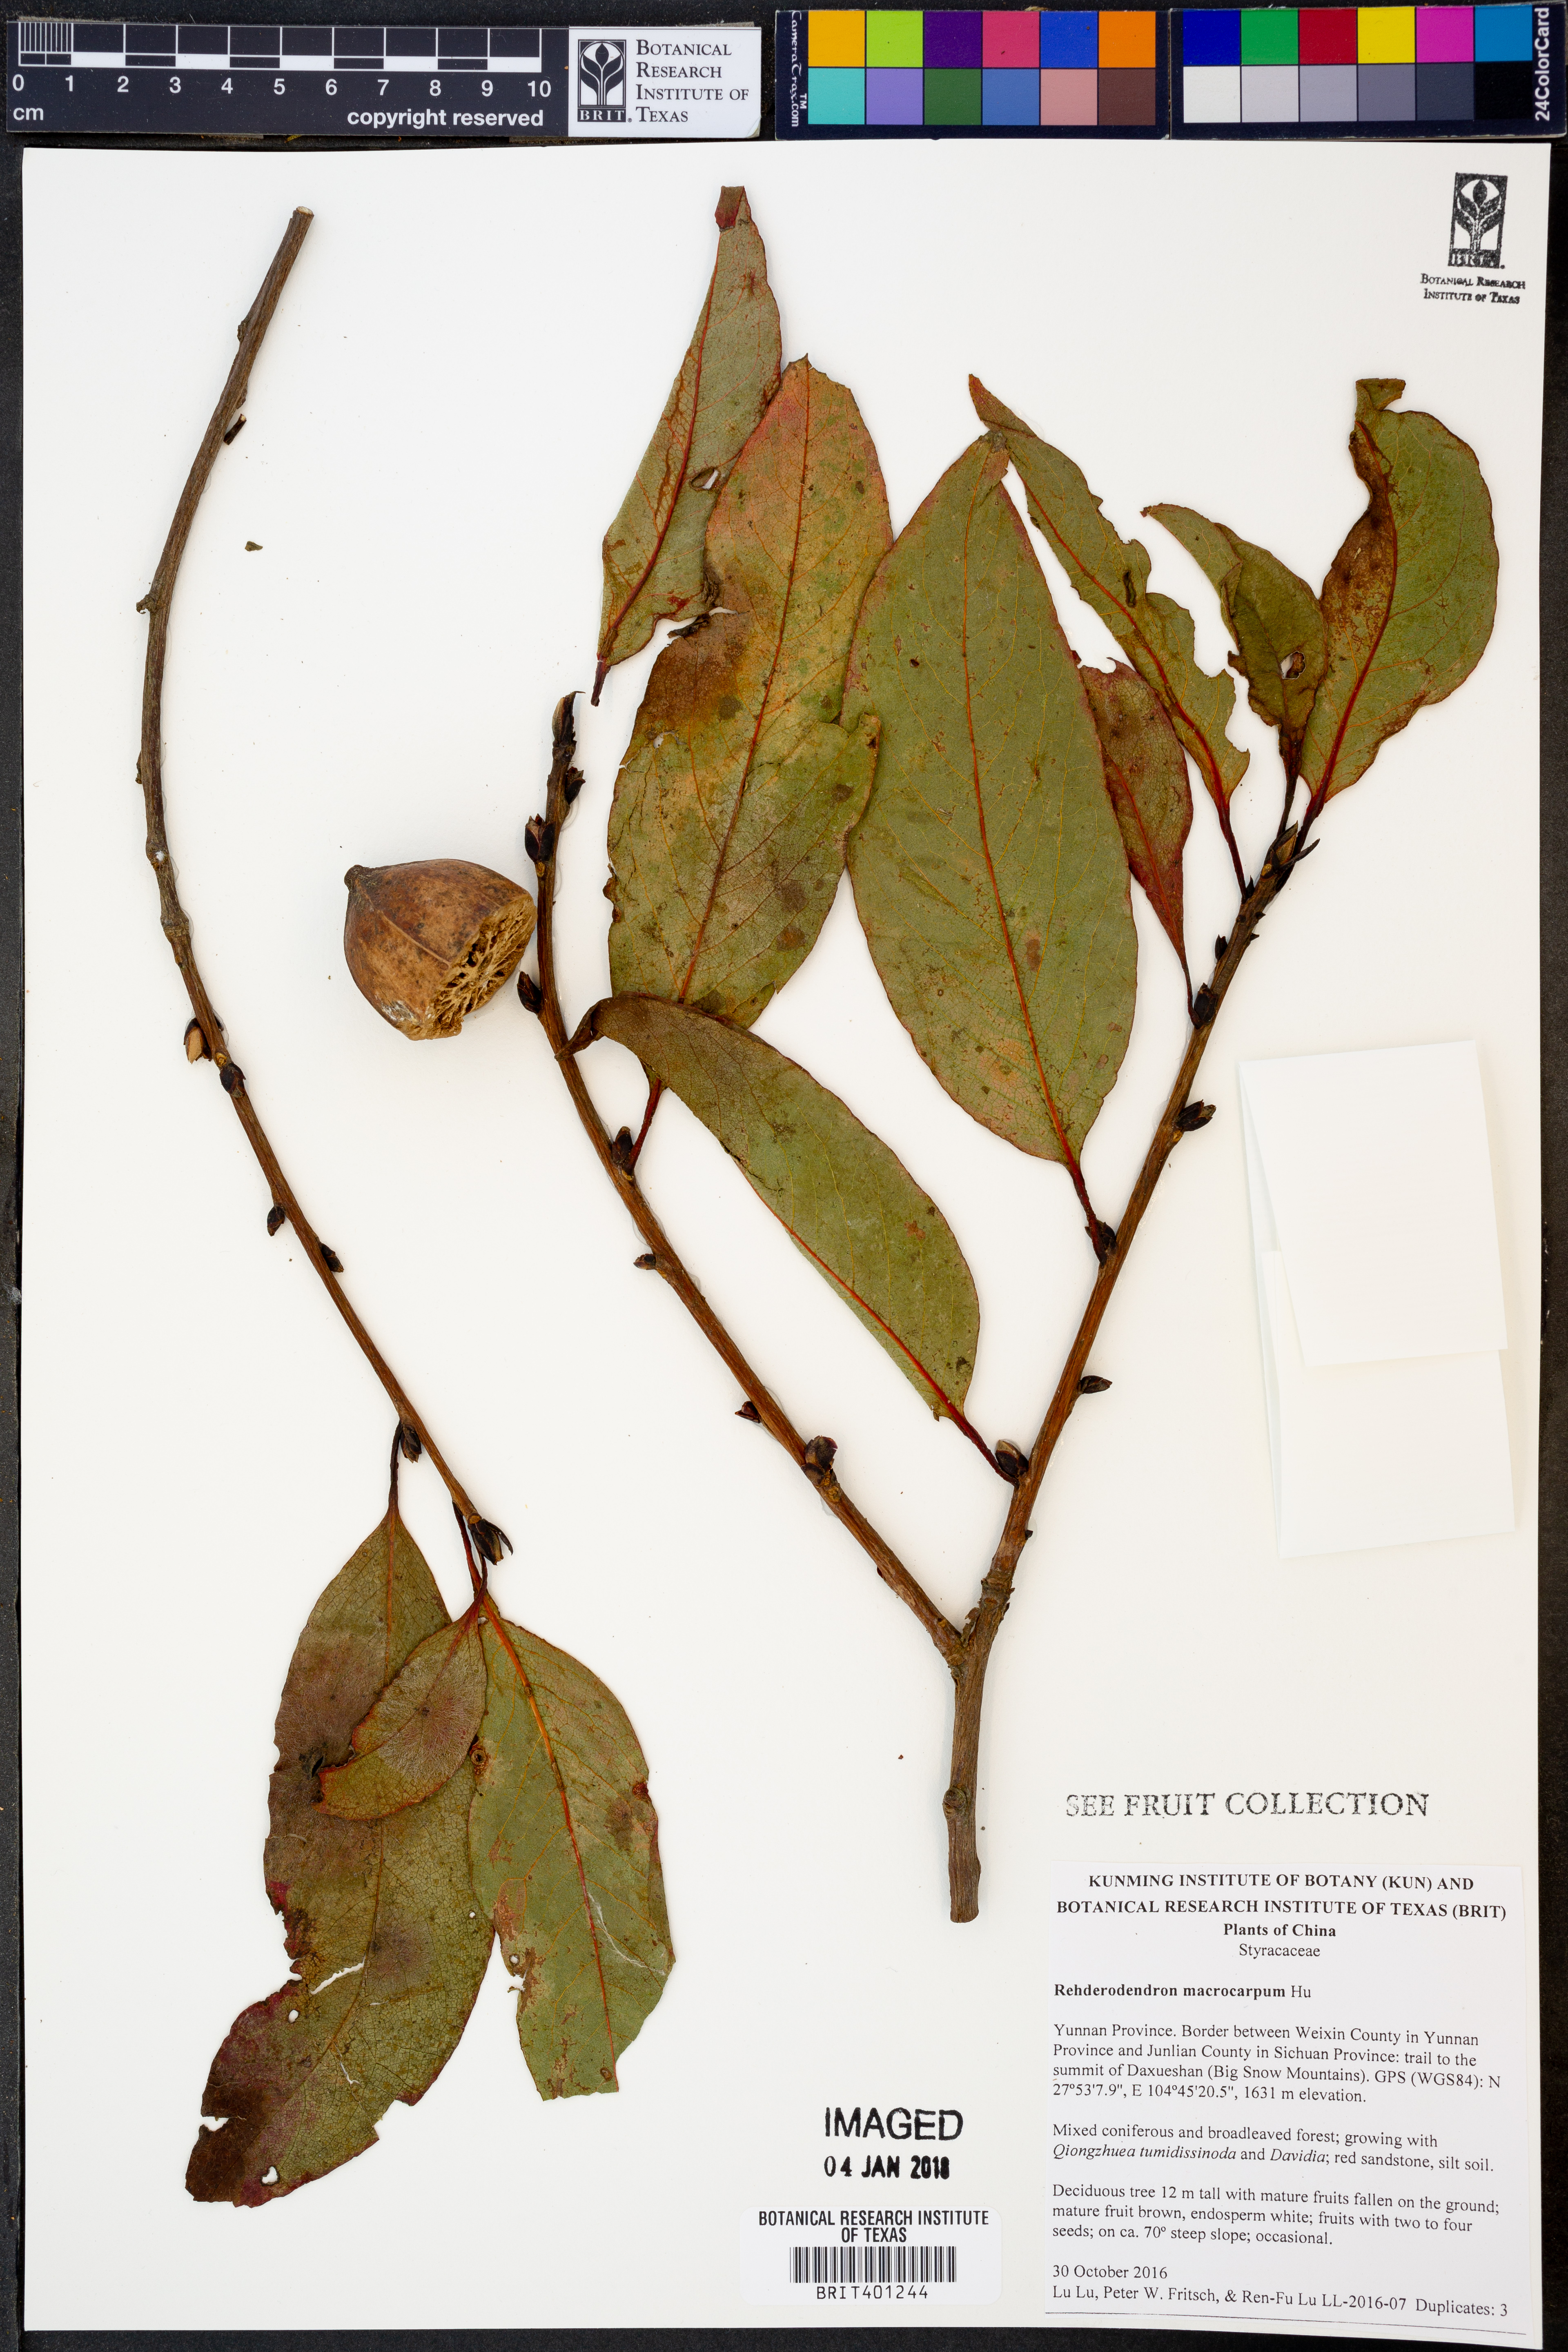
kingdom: Plantae
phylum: Tracheophyta
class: Magnoliopsida
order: Ericales
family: Styracaceae
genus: Rehderodendron
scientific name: Rehderodendron macrocarpum
